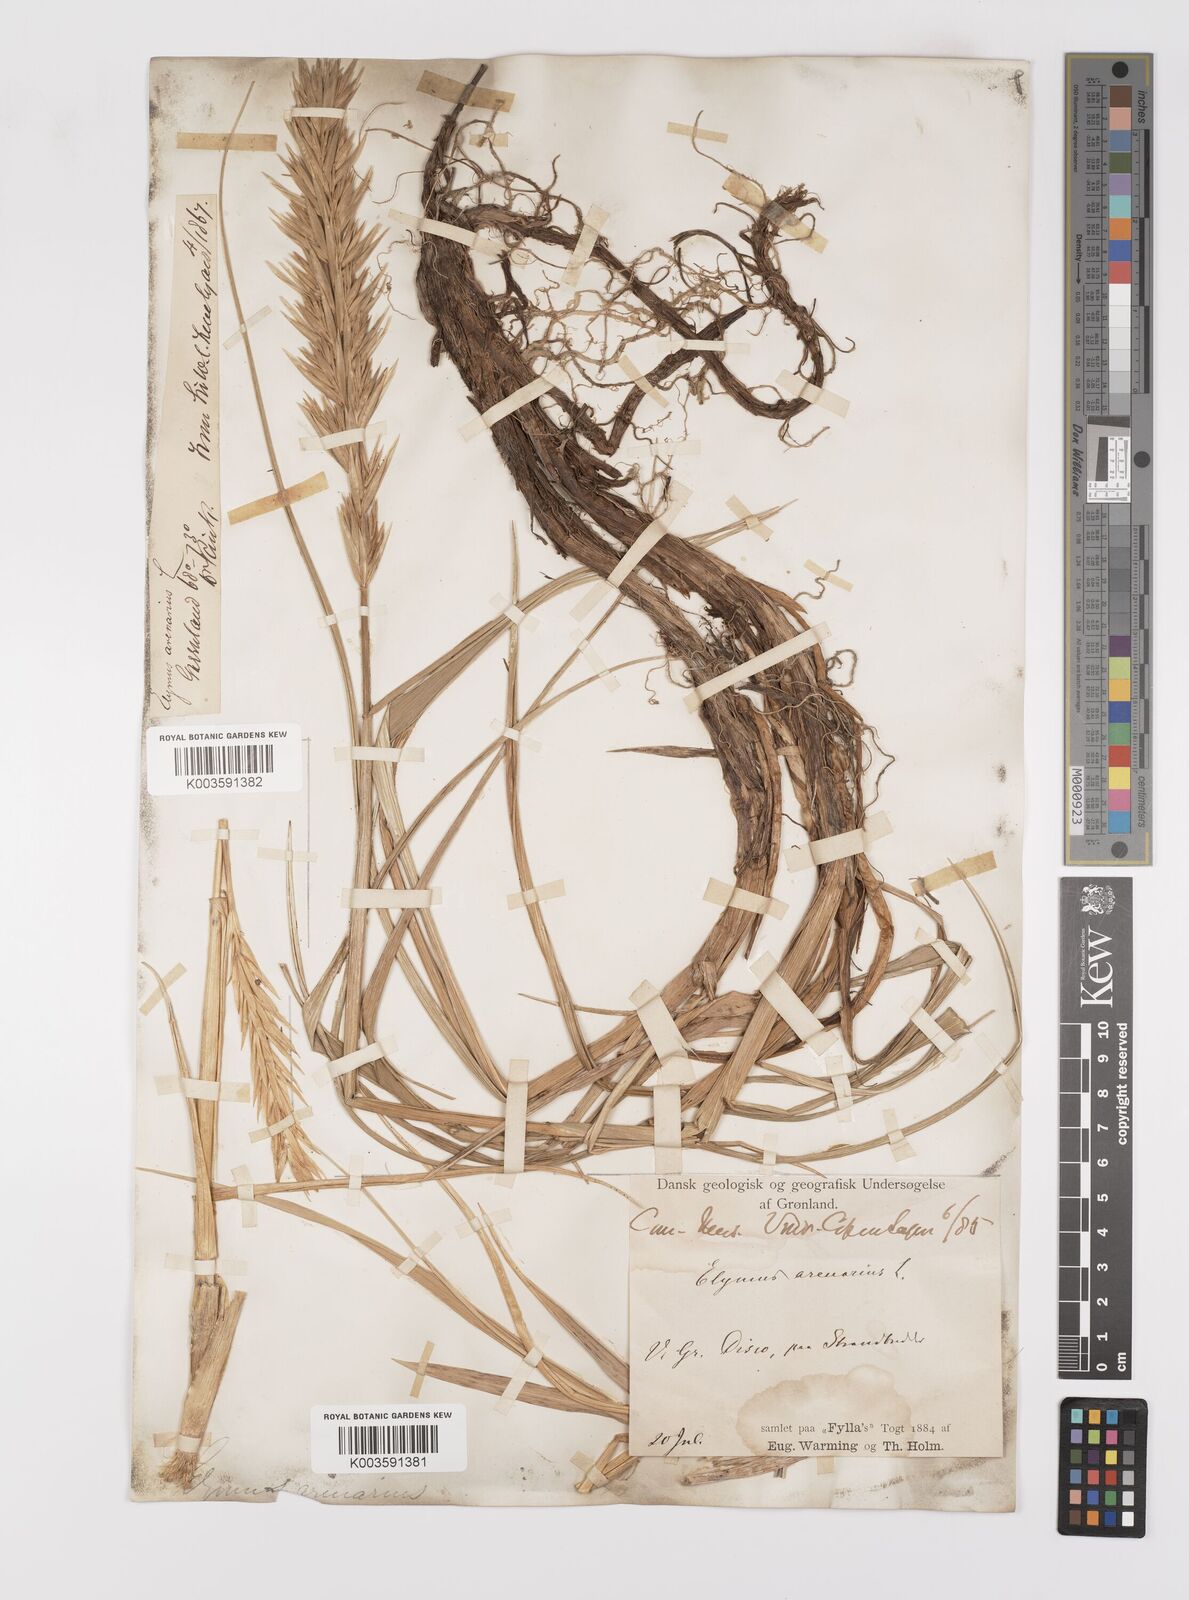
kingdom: Plantae
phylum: Tracheophyta
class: Liliopsida
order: Poales
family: Poaceae
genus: Leymus
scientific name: Leymus mollis
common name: American dune grass
